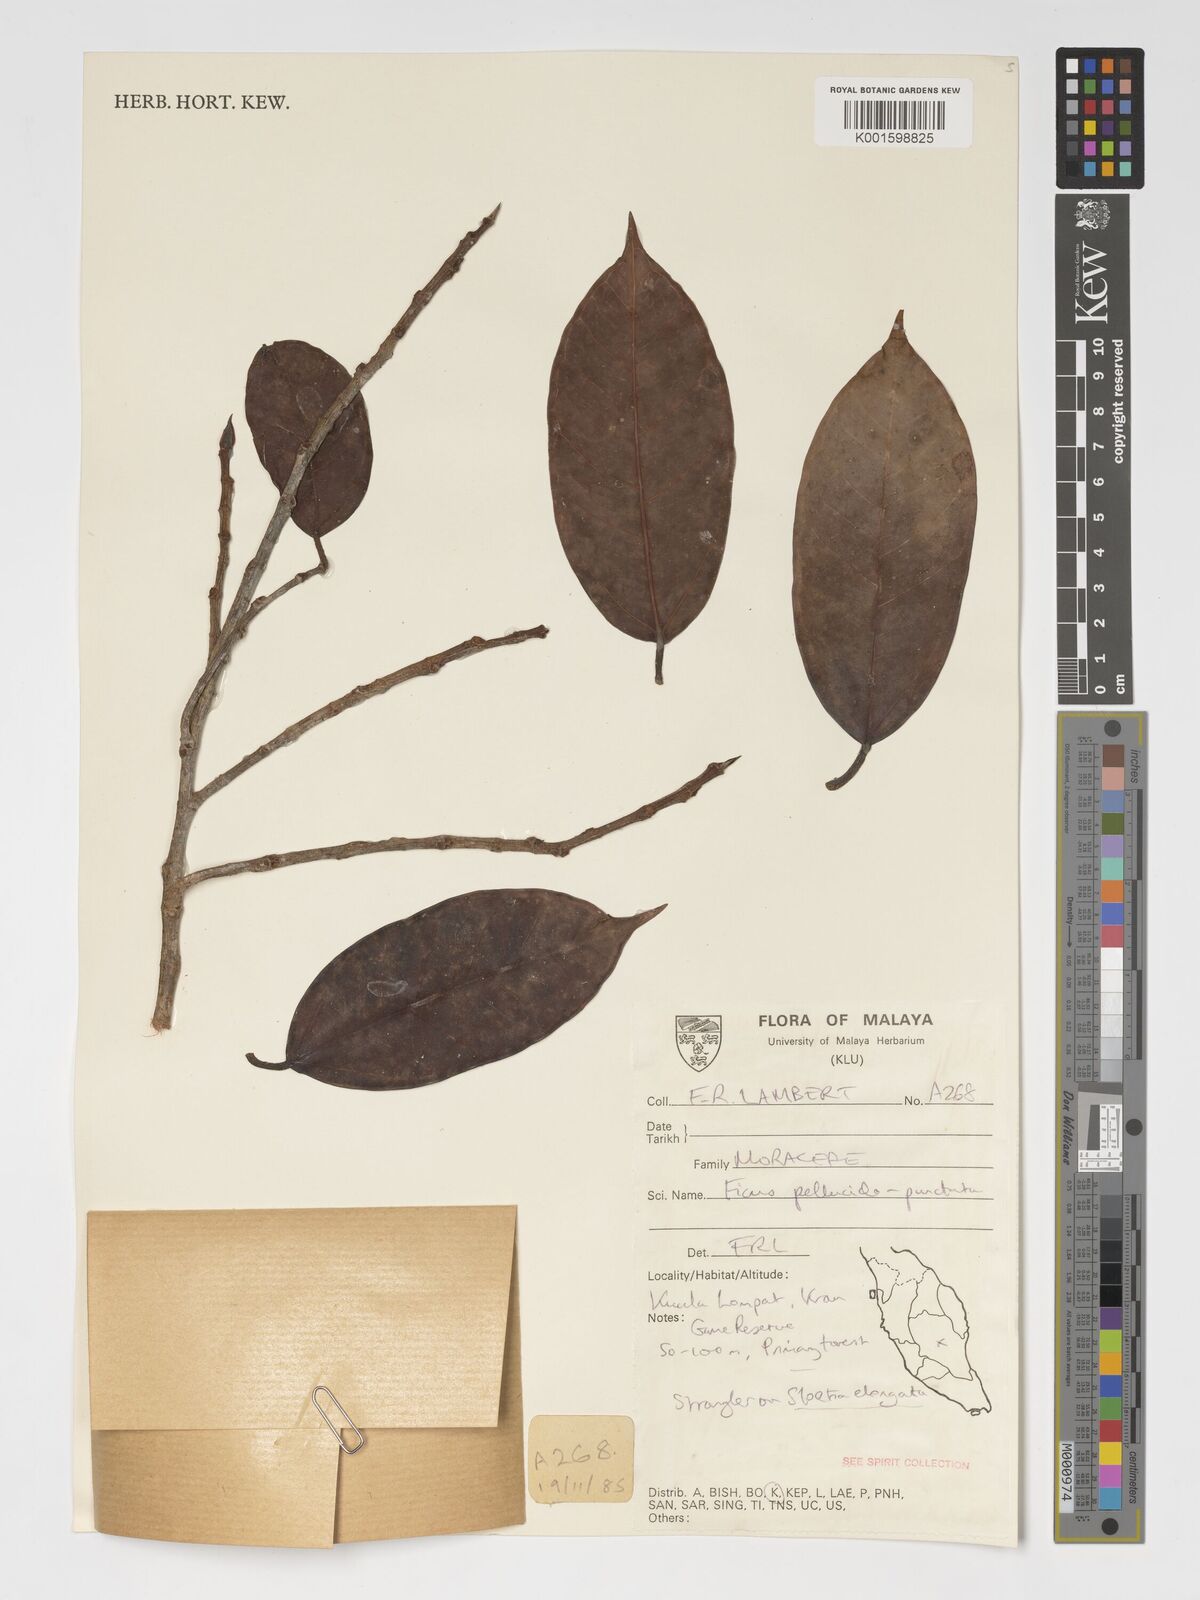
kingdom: Plantae
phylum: Tracheophyta
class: Magnoliopsida
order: Rosales
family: Moraceae
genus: Ficus
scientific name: Ficus pellucidopunctata
